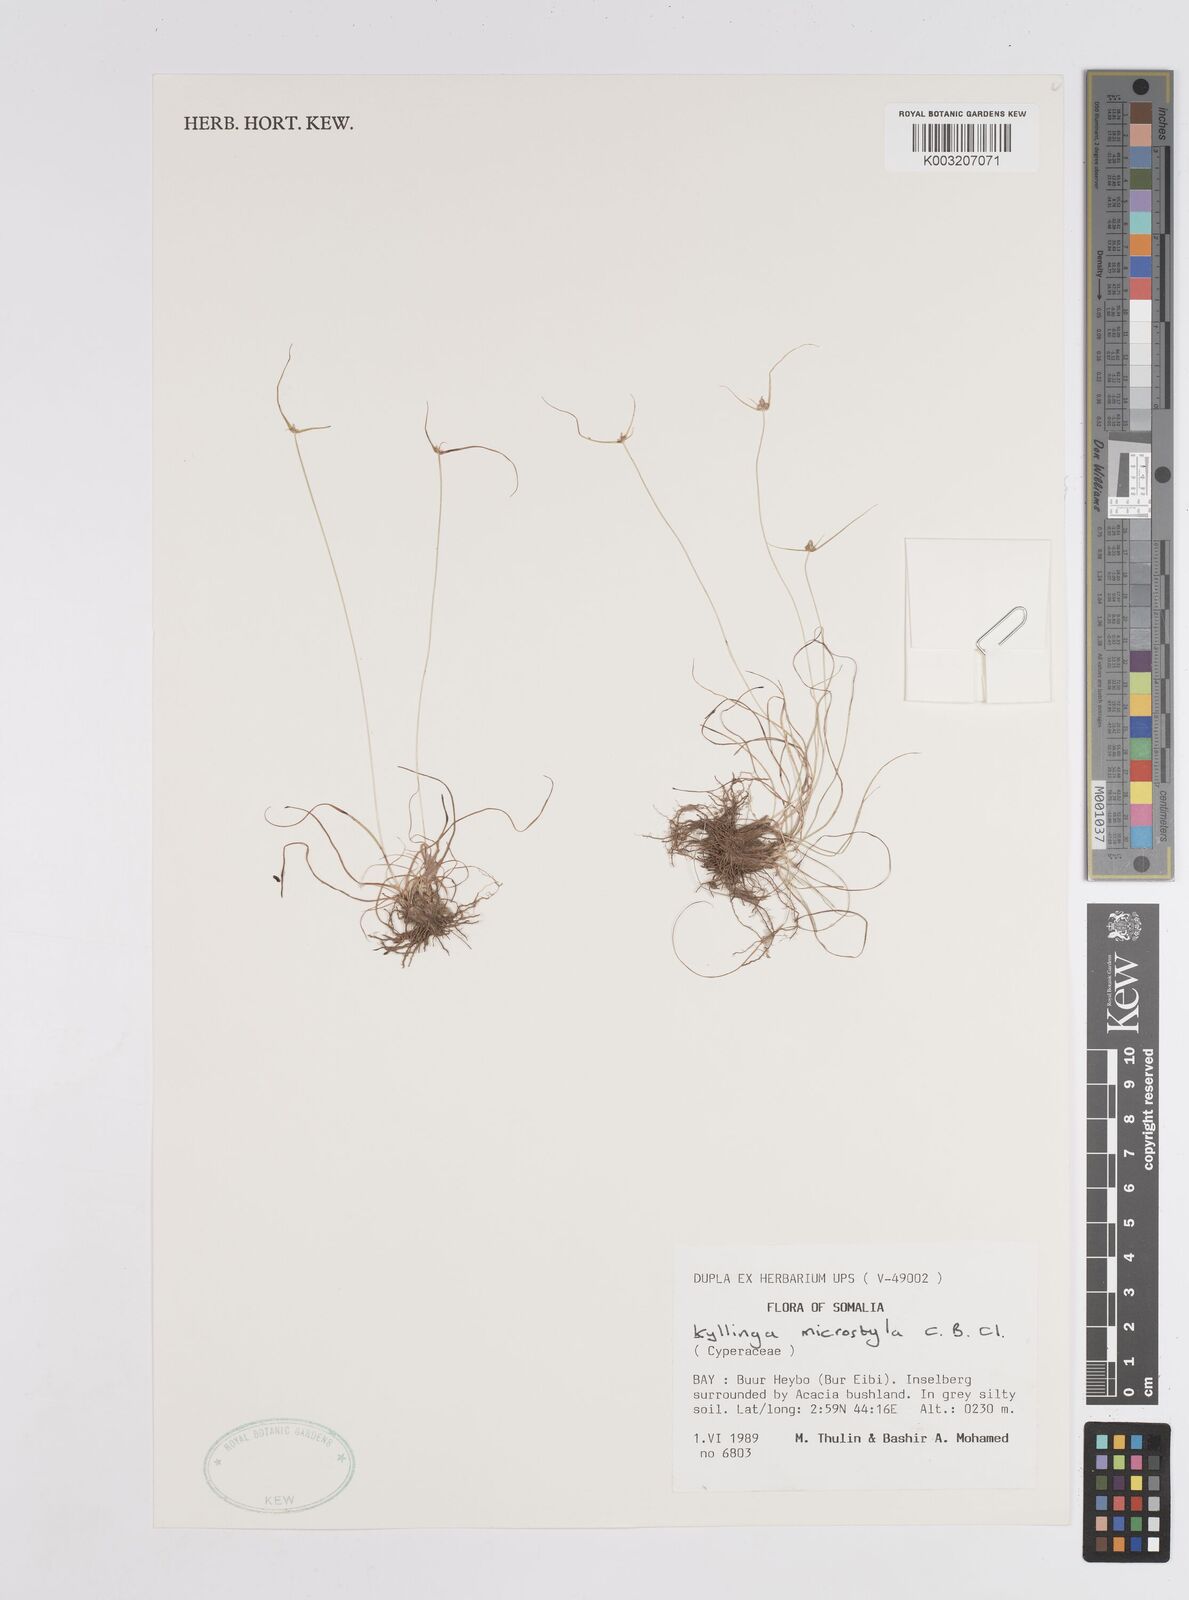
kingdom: Plantae
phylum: Tracheophyta
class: Liliopsida
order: Poales
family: Cyperaceae
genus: Cyperus
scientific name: Cyperus microstylus
